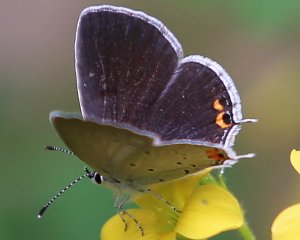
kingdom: Animalia
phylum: Arthropoda
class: Insecta
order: Lepidoptera
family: Lycaenidae
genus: Elkalyce
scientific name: Elkalyce comyntas
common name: Eastern Tailed-Blue
